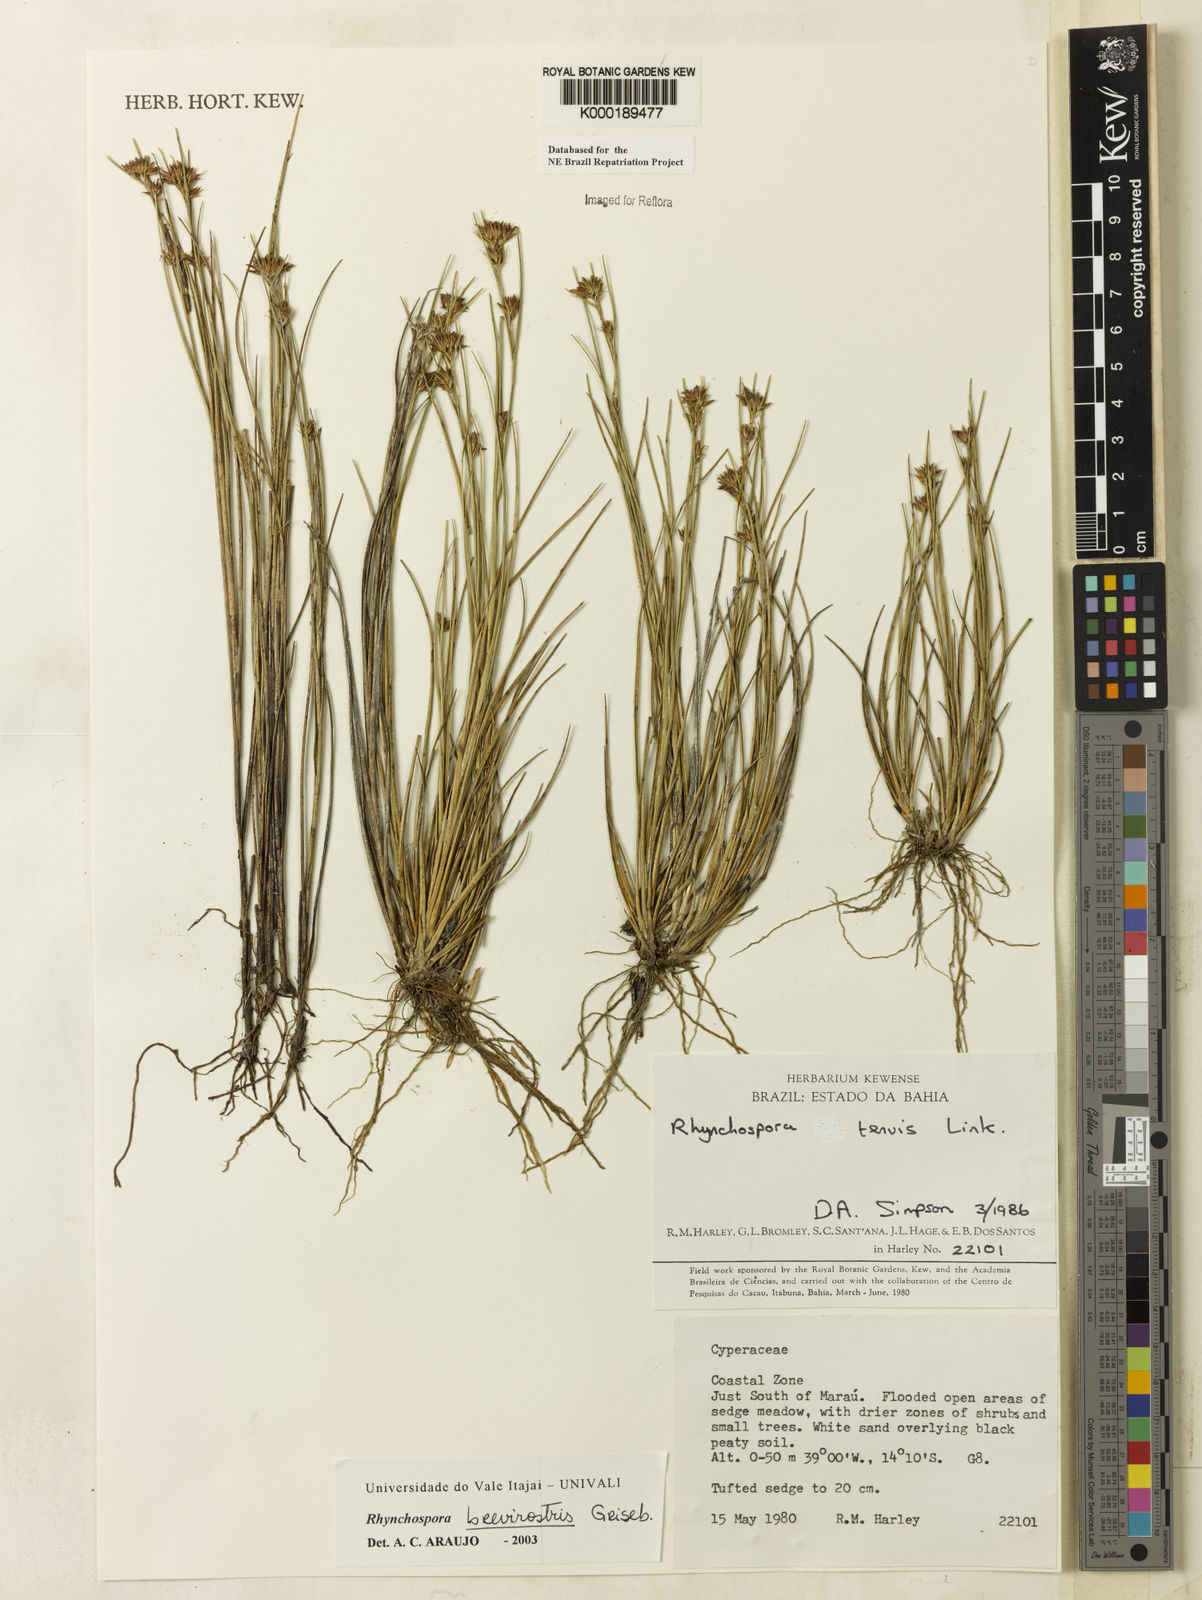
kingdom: Plantae
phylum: Tracheophyta
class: Liliopsida
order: Poales
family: Cyperaceae
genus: Rhynchospora
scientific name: Rhynchospora brevirostris
